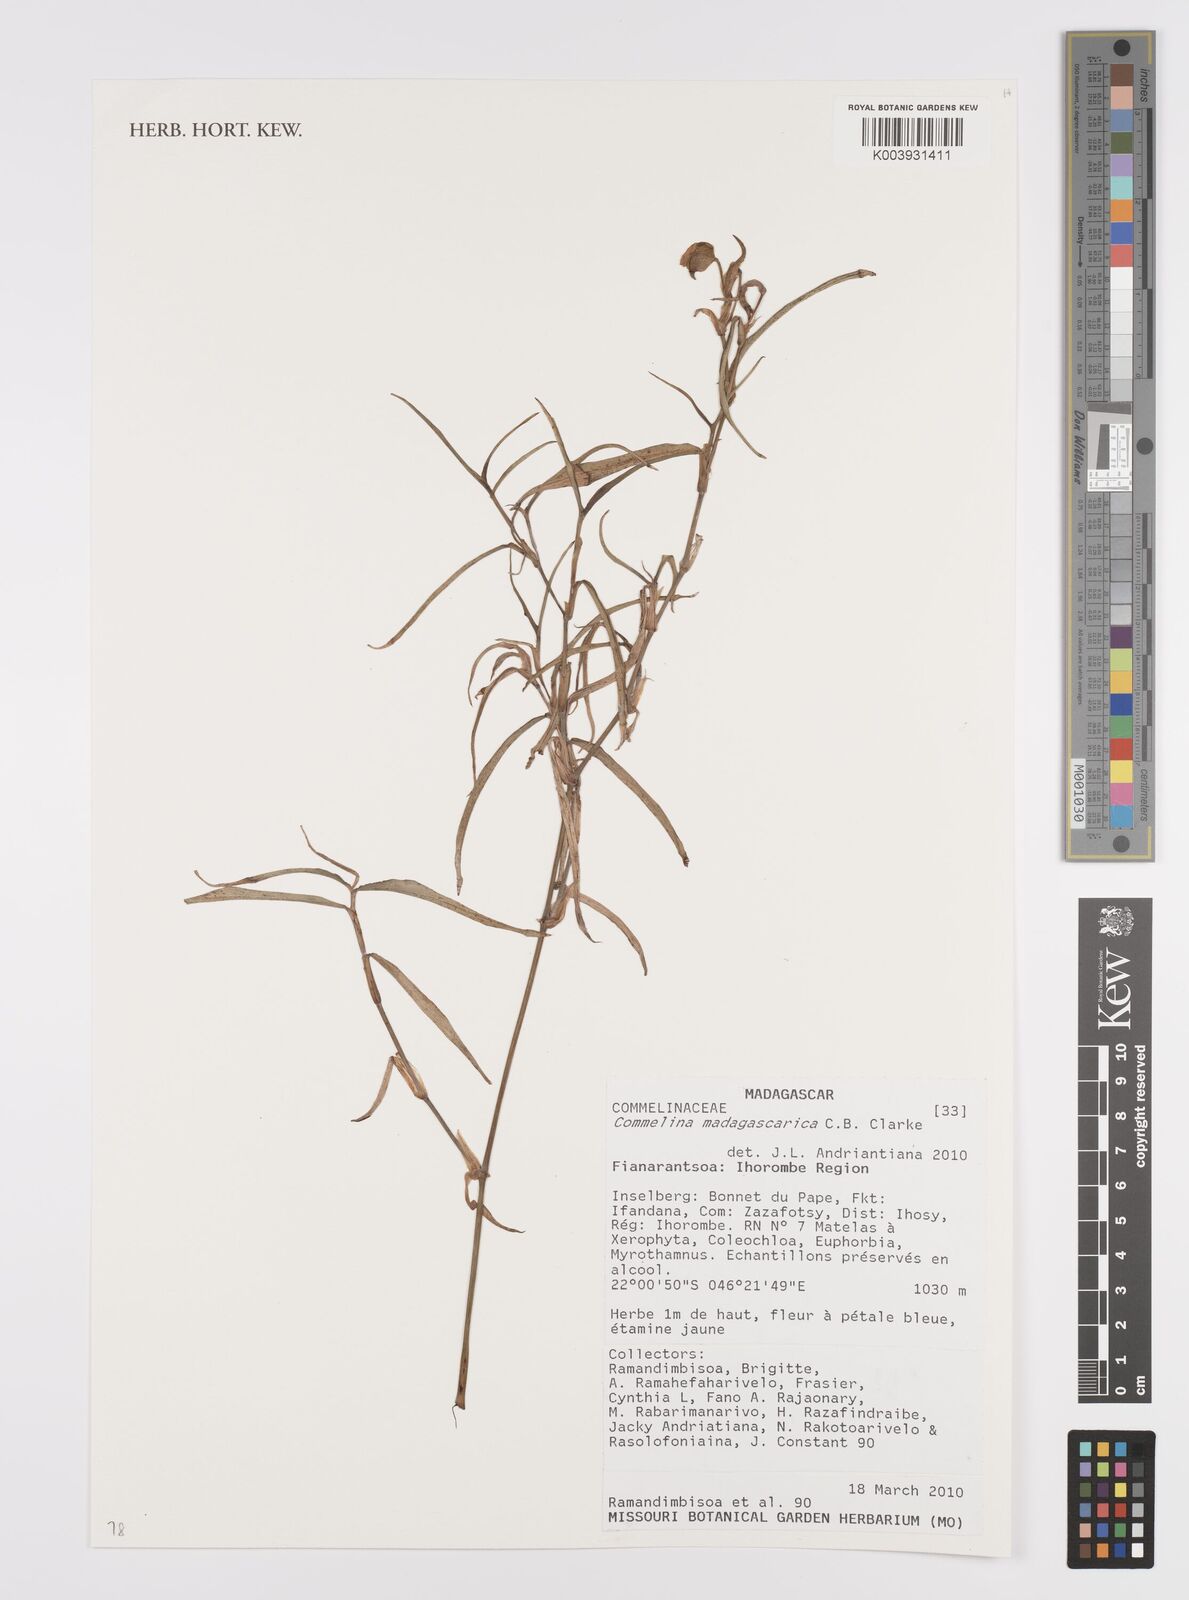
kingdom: Plantae
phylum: Tracheophyta
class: Liliopsida
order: Commelinales
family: Commelinaceae
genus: Commelina
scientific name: Commelina madagascarica
